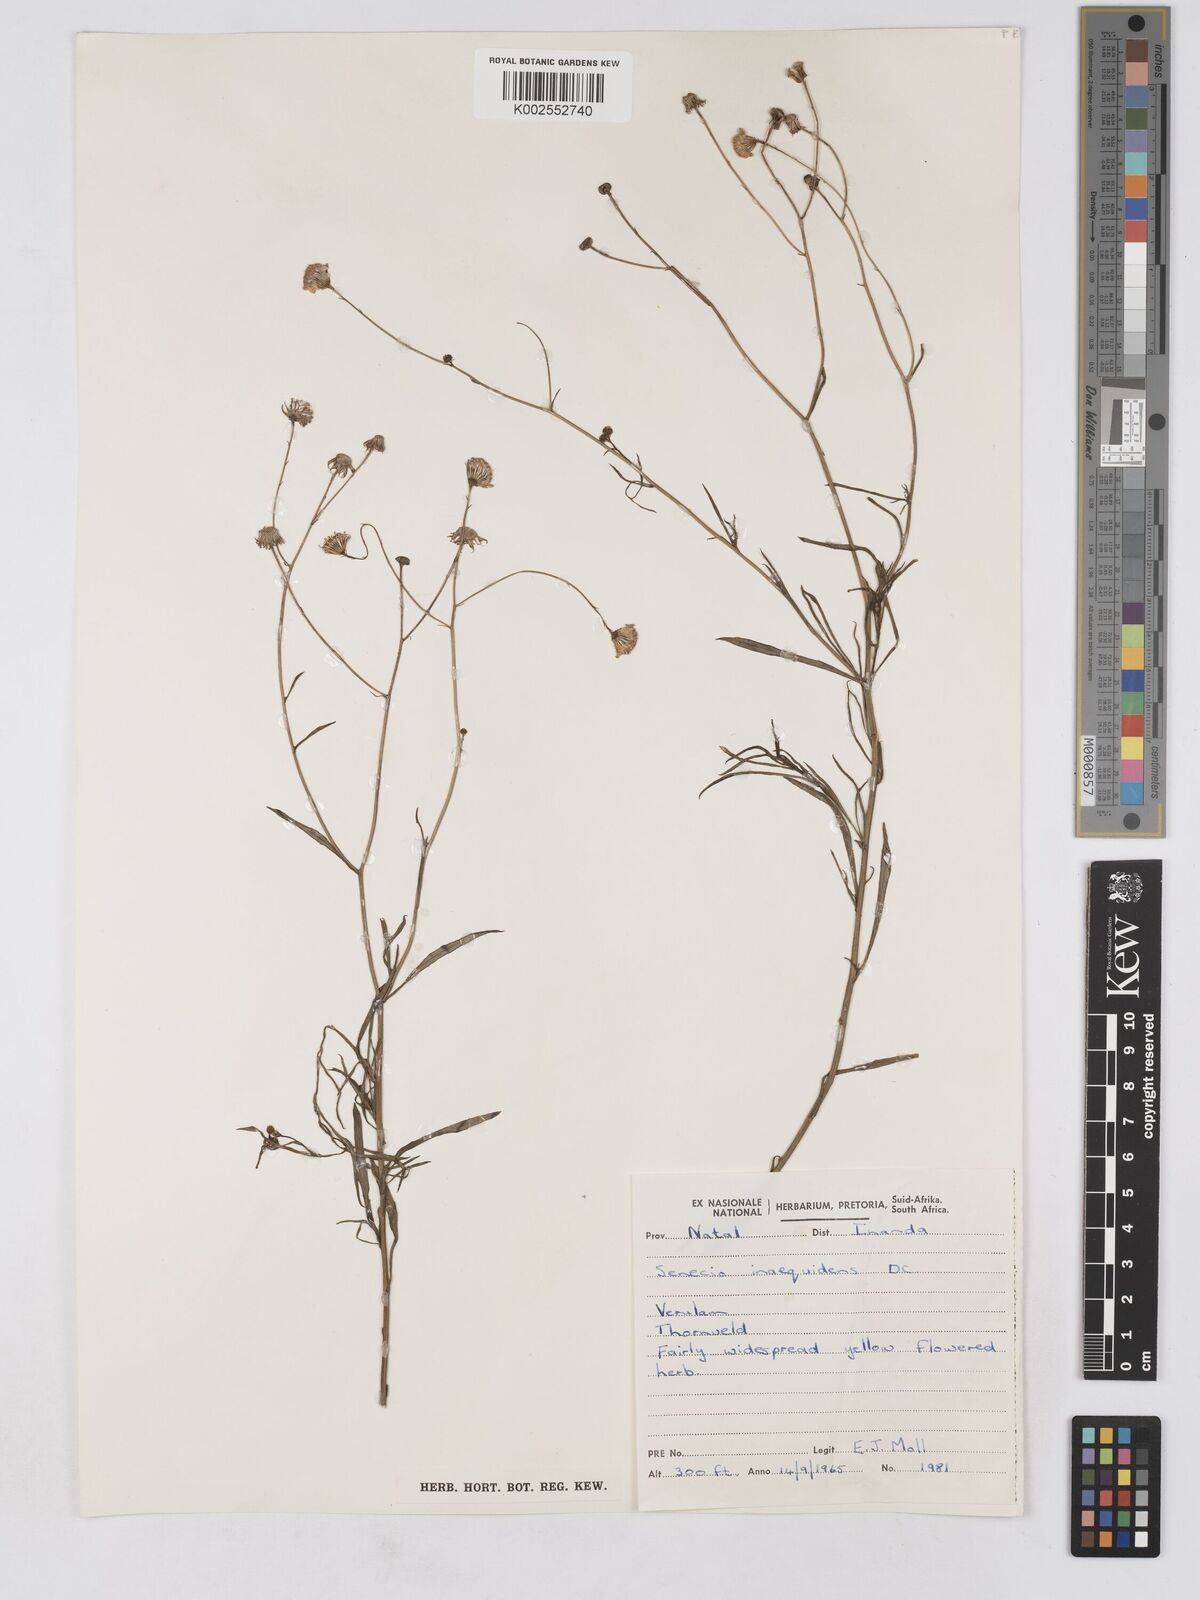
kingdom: Plantae
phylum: Tracheophyta
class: Magnoliopsida
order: Asterales
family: Asteraceae
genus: Senecio
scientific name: Senecio madagascariensis
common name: Madagascar ragwort
